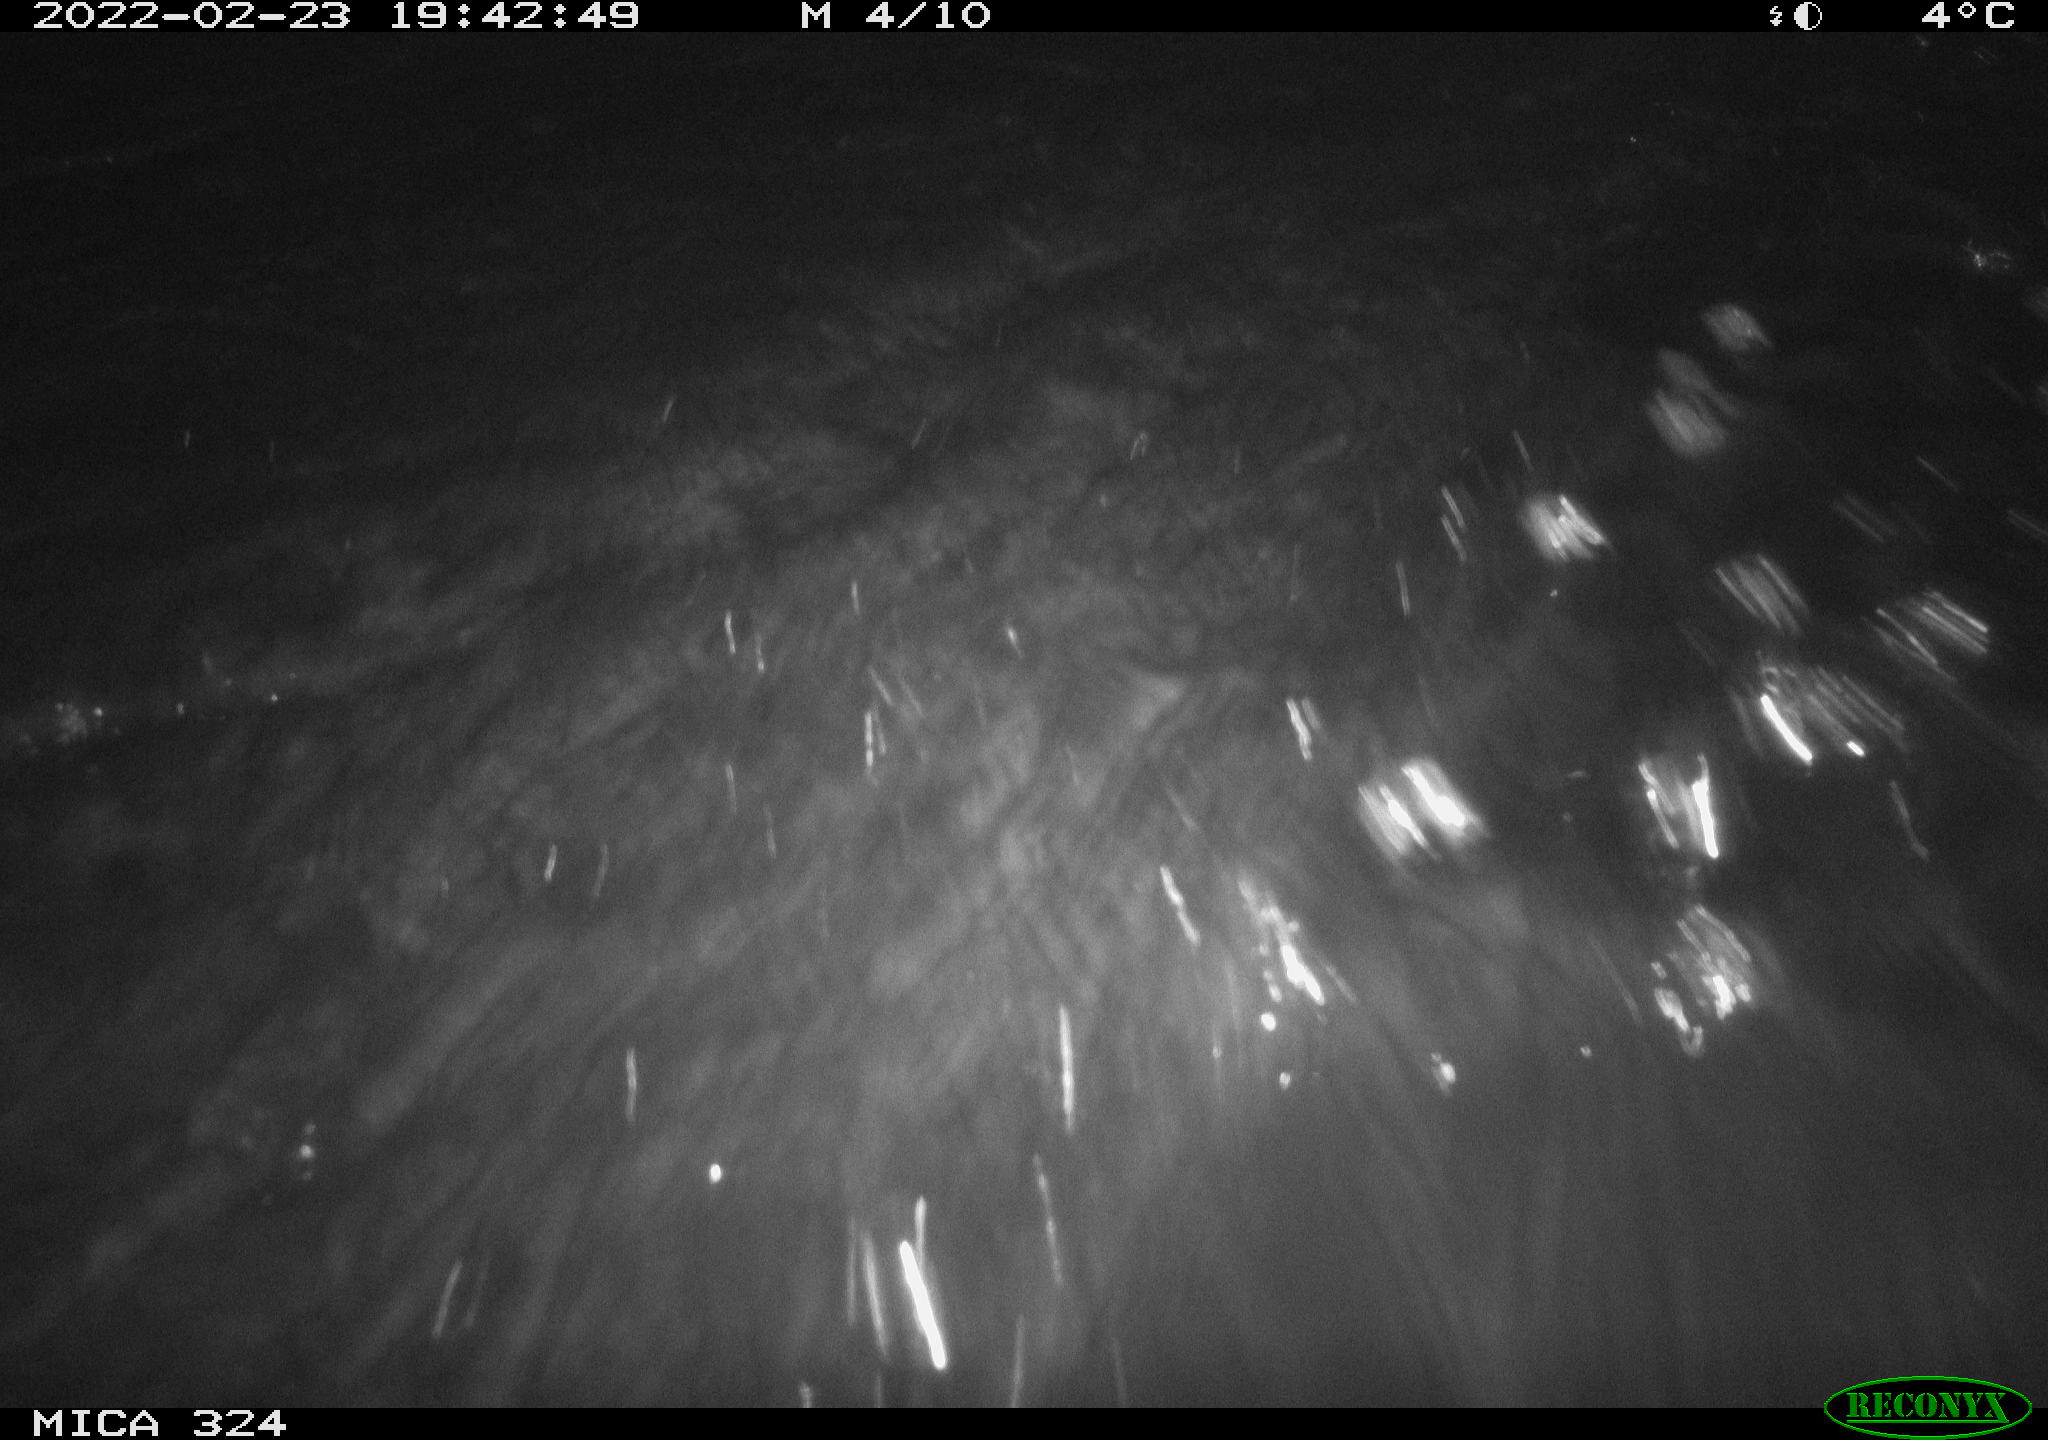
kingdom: Animalia
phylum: Chordata
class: Mammalia
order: Rodentia
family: Cricetidae
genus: Ondatra
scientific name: Ondatra zibethicus
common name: Muskrat
